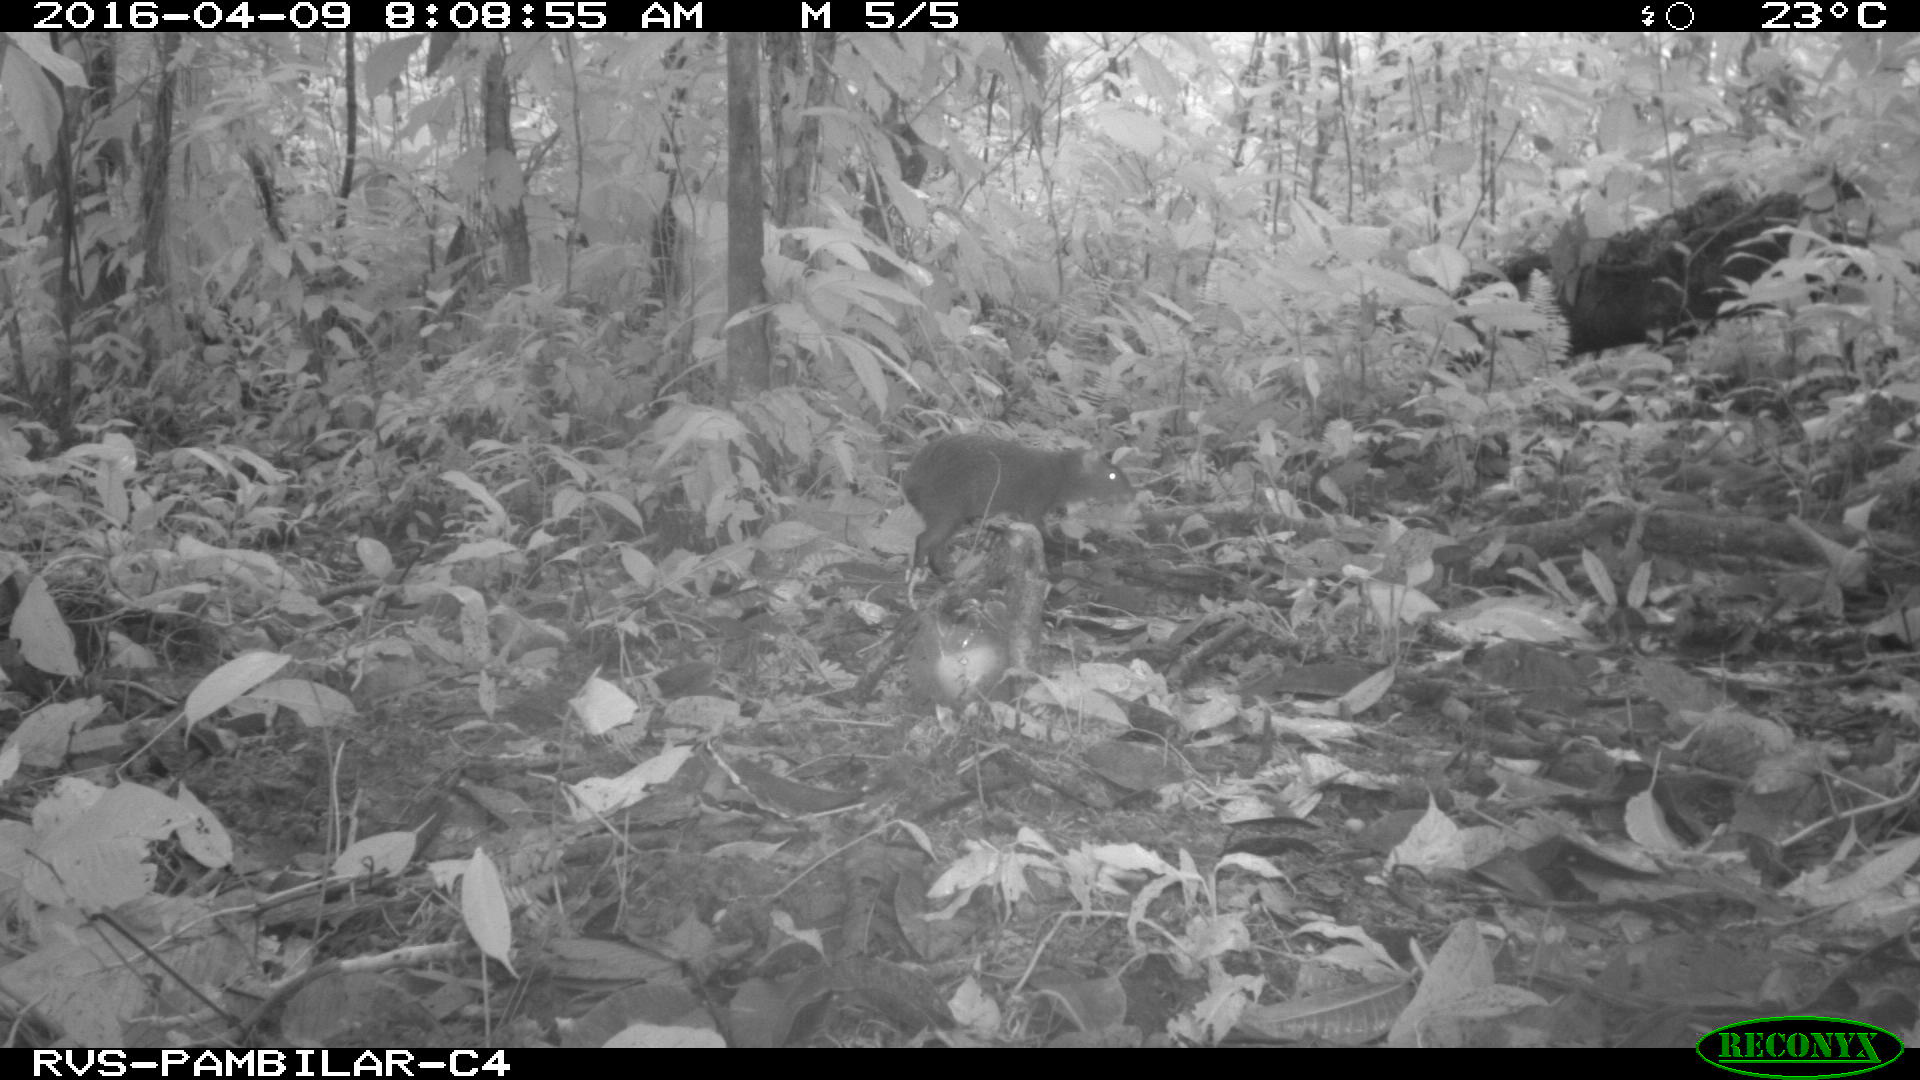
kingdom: Animalia
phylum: Chordata
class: Mammalia
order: Rodentia
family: Dasyproctidae
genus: Dasyprocta
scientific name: Dasyprocta punctata
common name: Central american agouti
